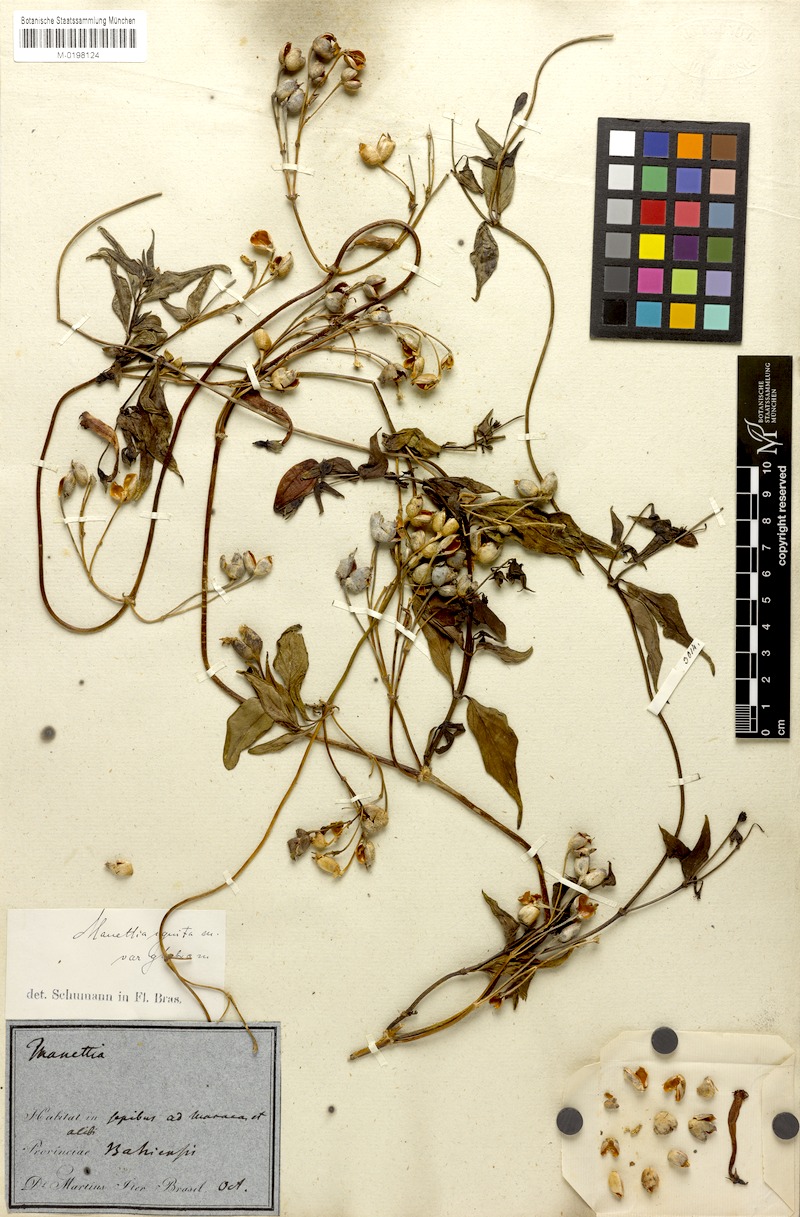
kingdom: Plantae
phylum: Tracheophyta
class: Magnoliopsida
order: Gentianales
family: Rubiaceae
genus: Manettia
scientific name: Manettia cordifolia
